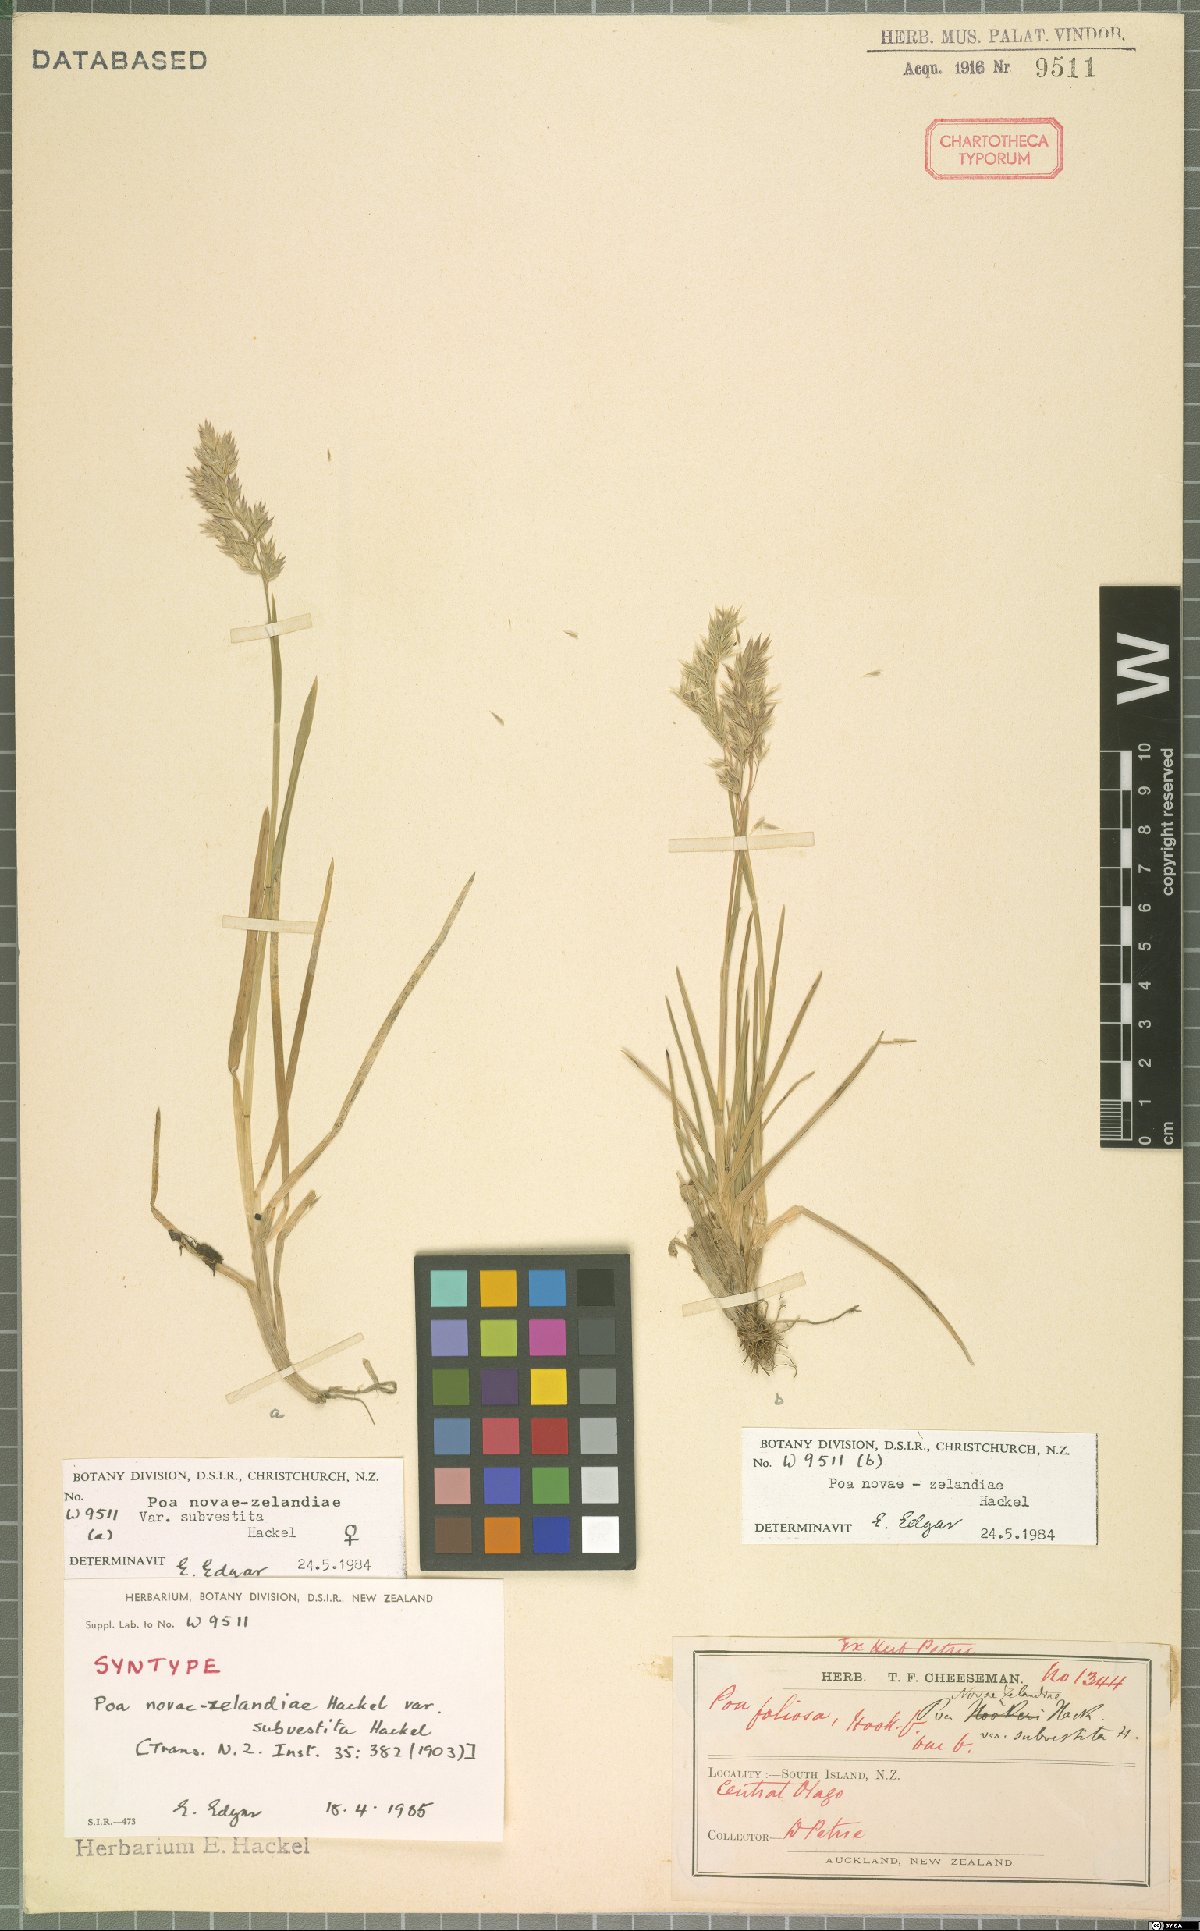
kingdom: Plantae
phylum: Tracheophyta
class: Liliopsida
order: Poales
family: Poaceae
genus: Poa
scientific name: Poa novae-zelandiae
